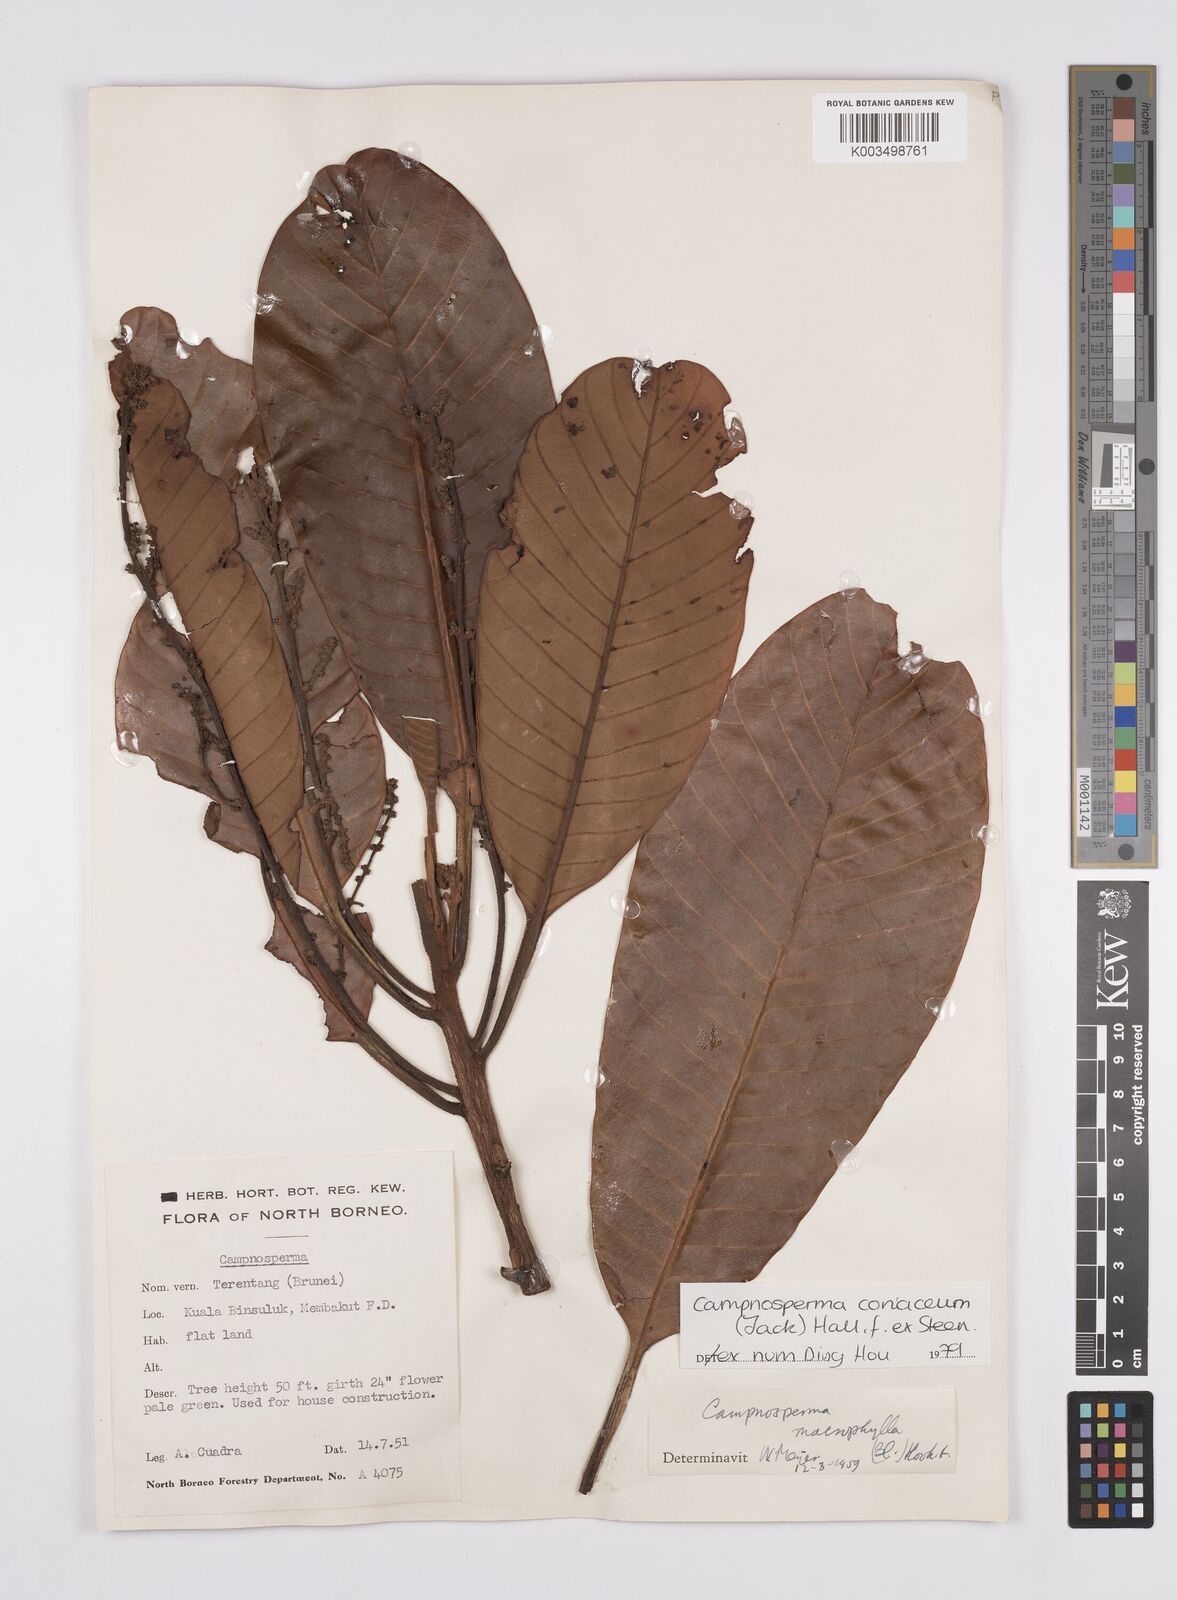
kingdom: Plantae
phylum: Tracheophyta
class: Magnoliopsida
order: Sapindales
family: Anacardiaceae
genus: Campnosperma
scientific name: Campnosperma coriaceum
